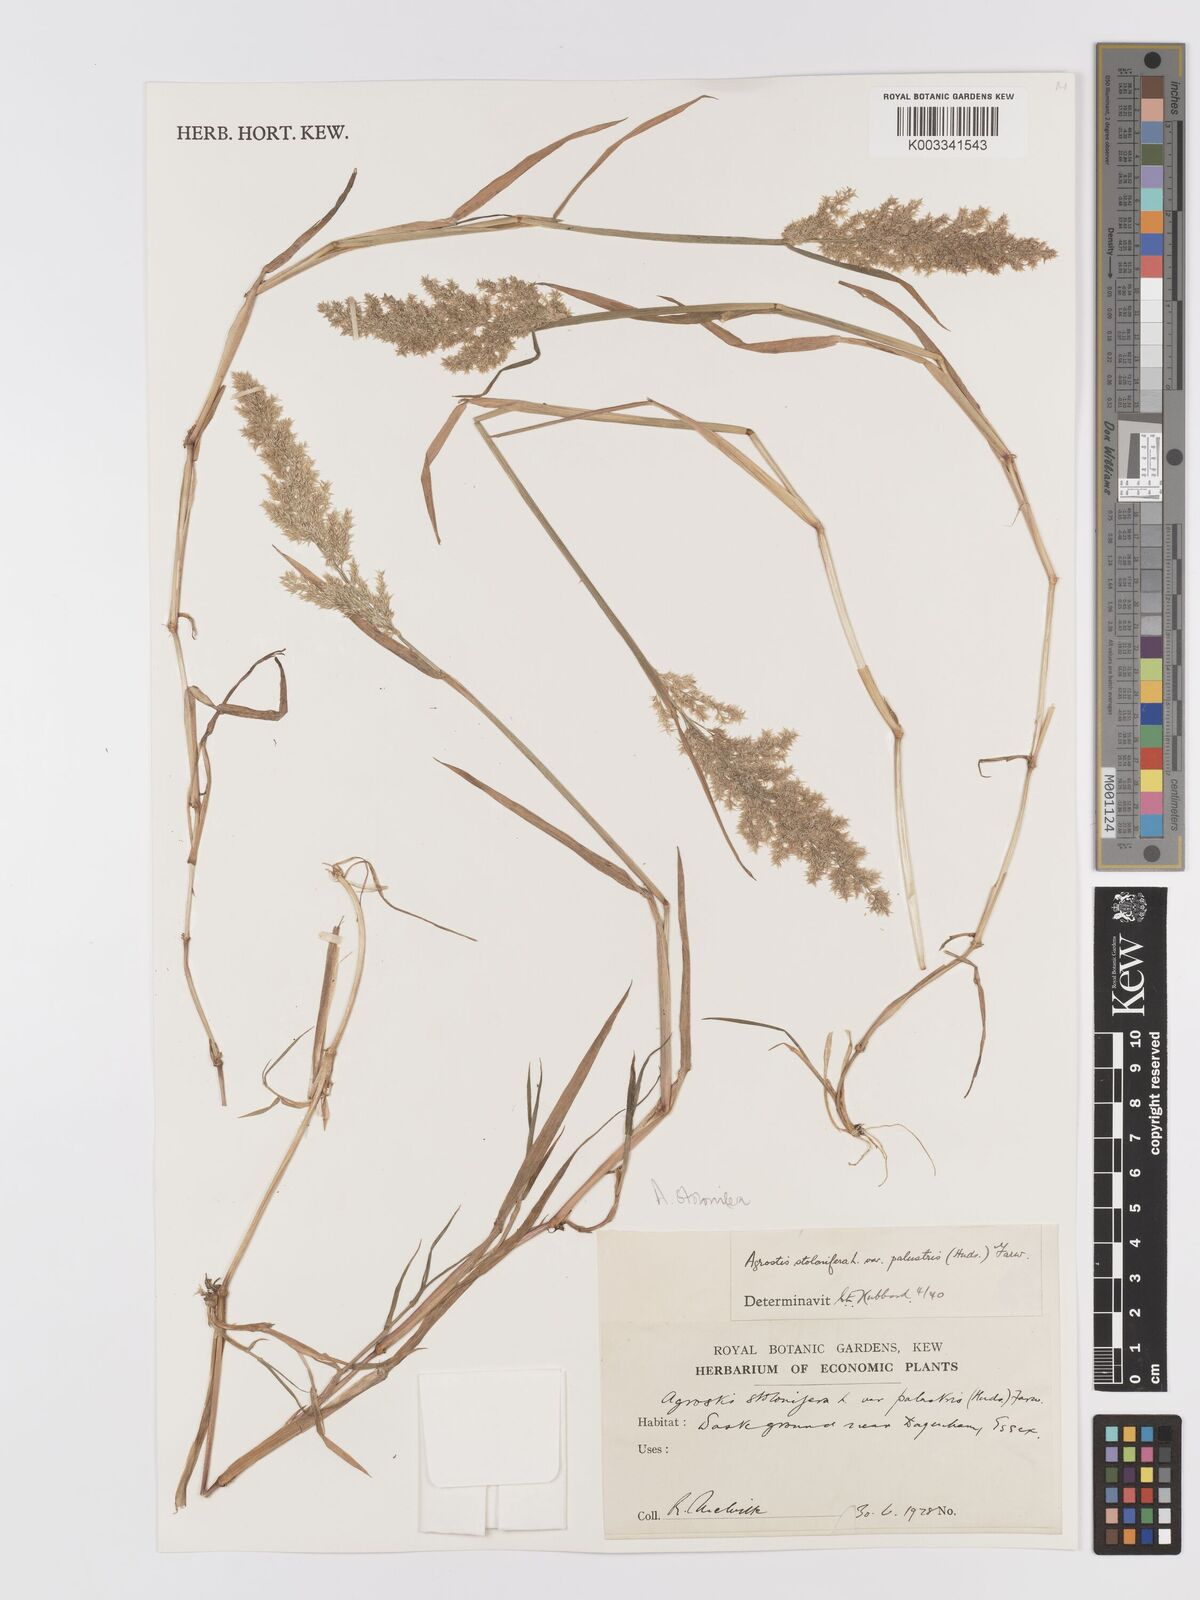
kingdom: Plantae
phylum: Tracheophyta
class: Liliopsida
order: Poales
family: Poaceae
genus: Agrostis
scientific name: Agrostis stolonifera
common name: Creeping bentgrass
